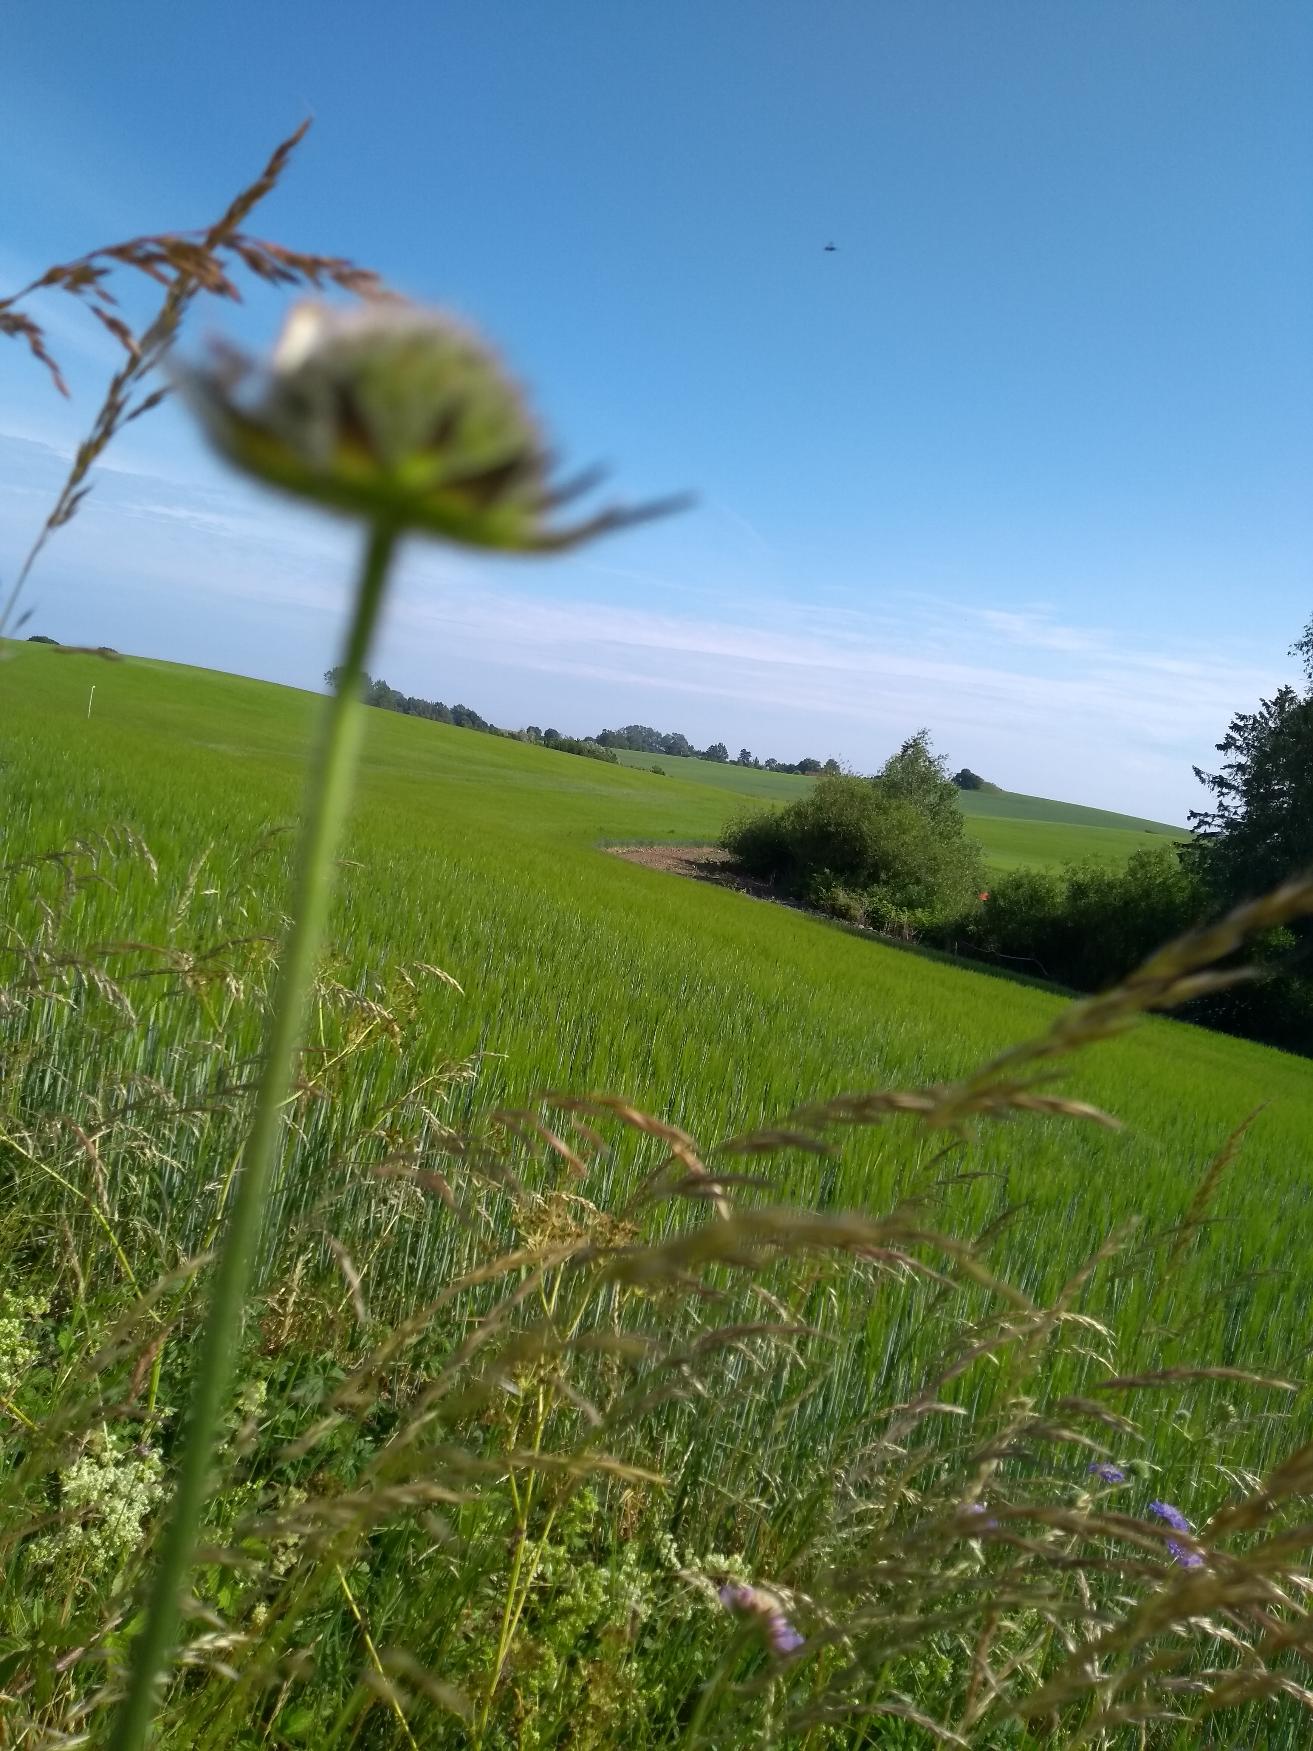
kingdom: Plantae
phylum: Tracheophyta
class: Magnoliopsida
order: Dipsacales
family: Caprifoliaceae
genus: Knautia
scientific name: Knautia arvensis
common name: Blåhat
